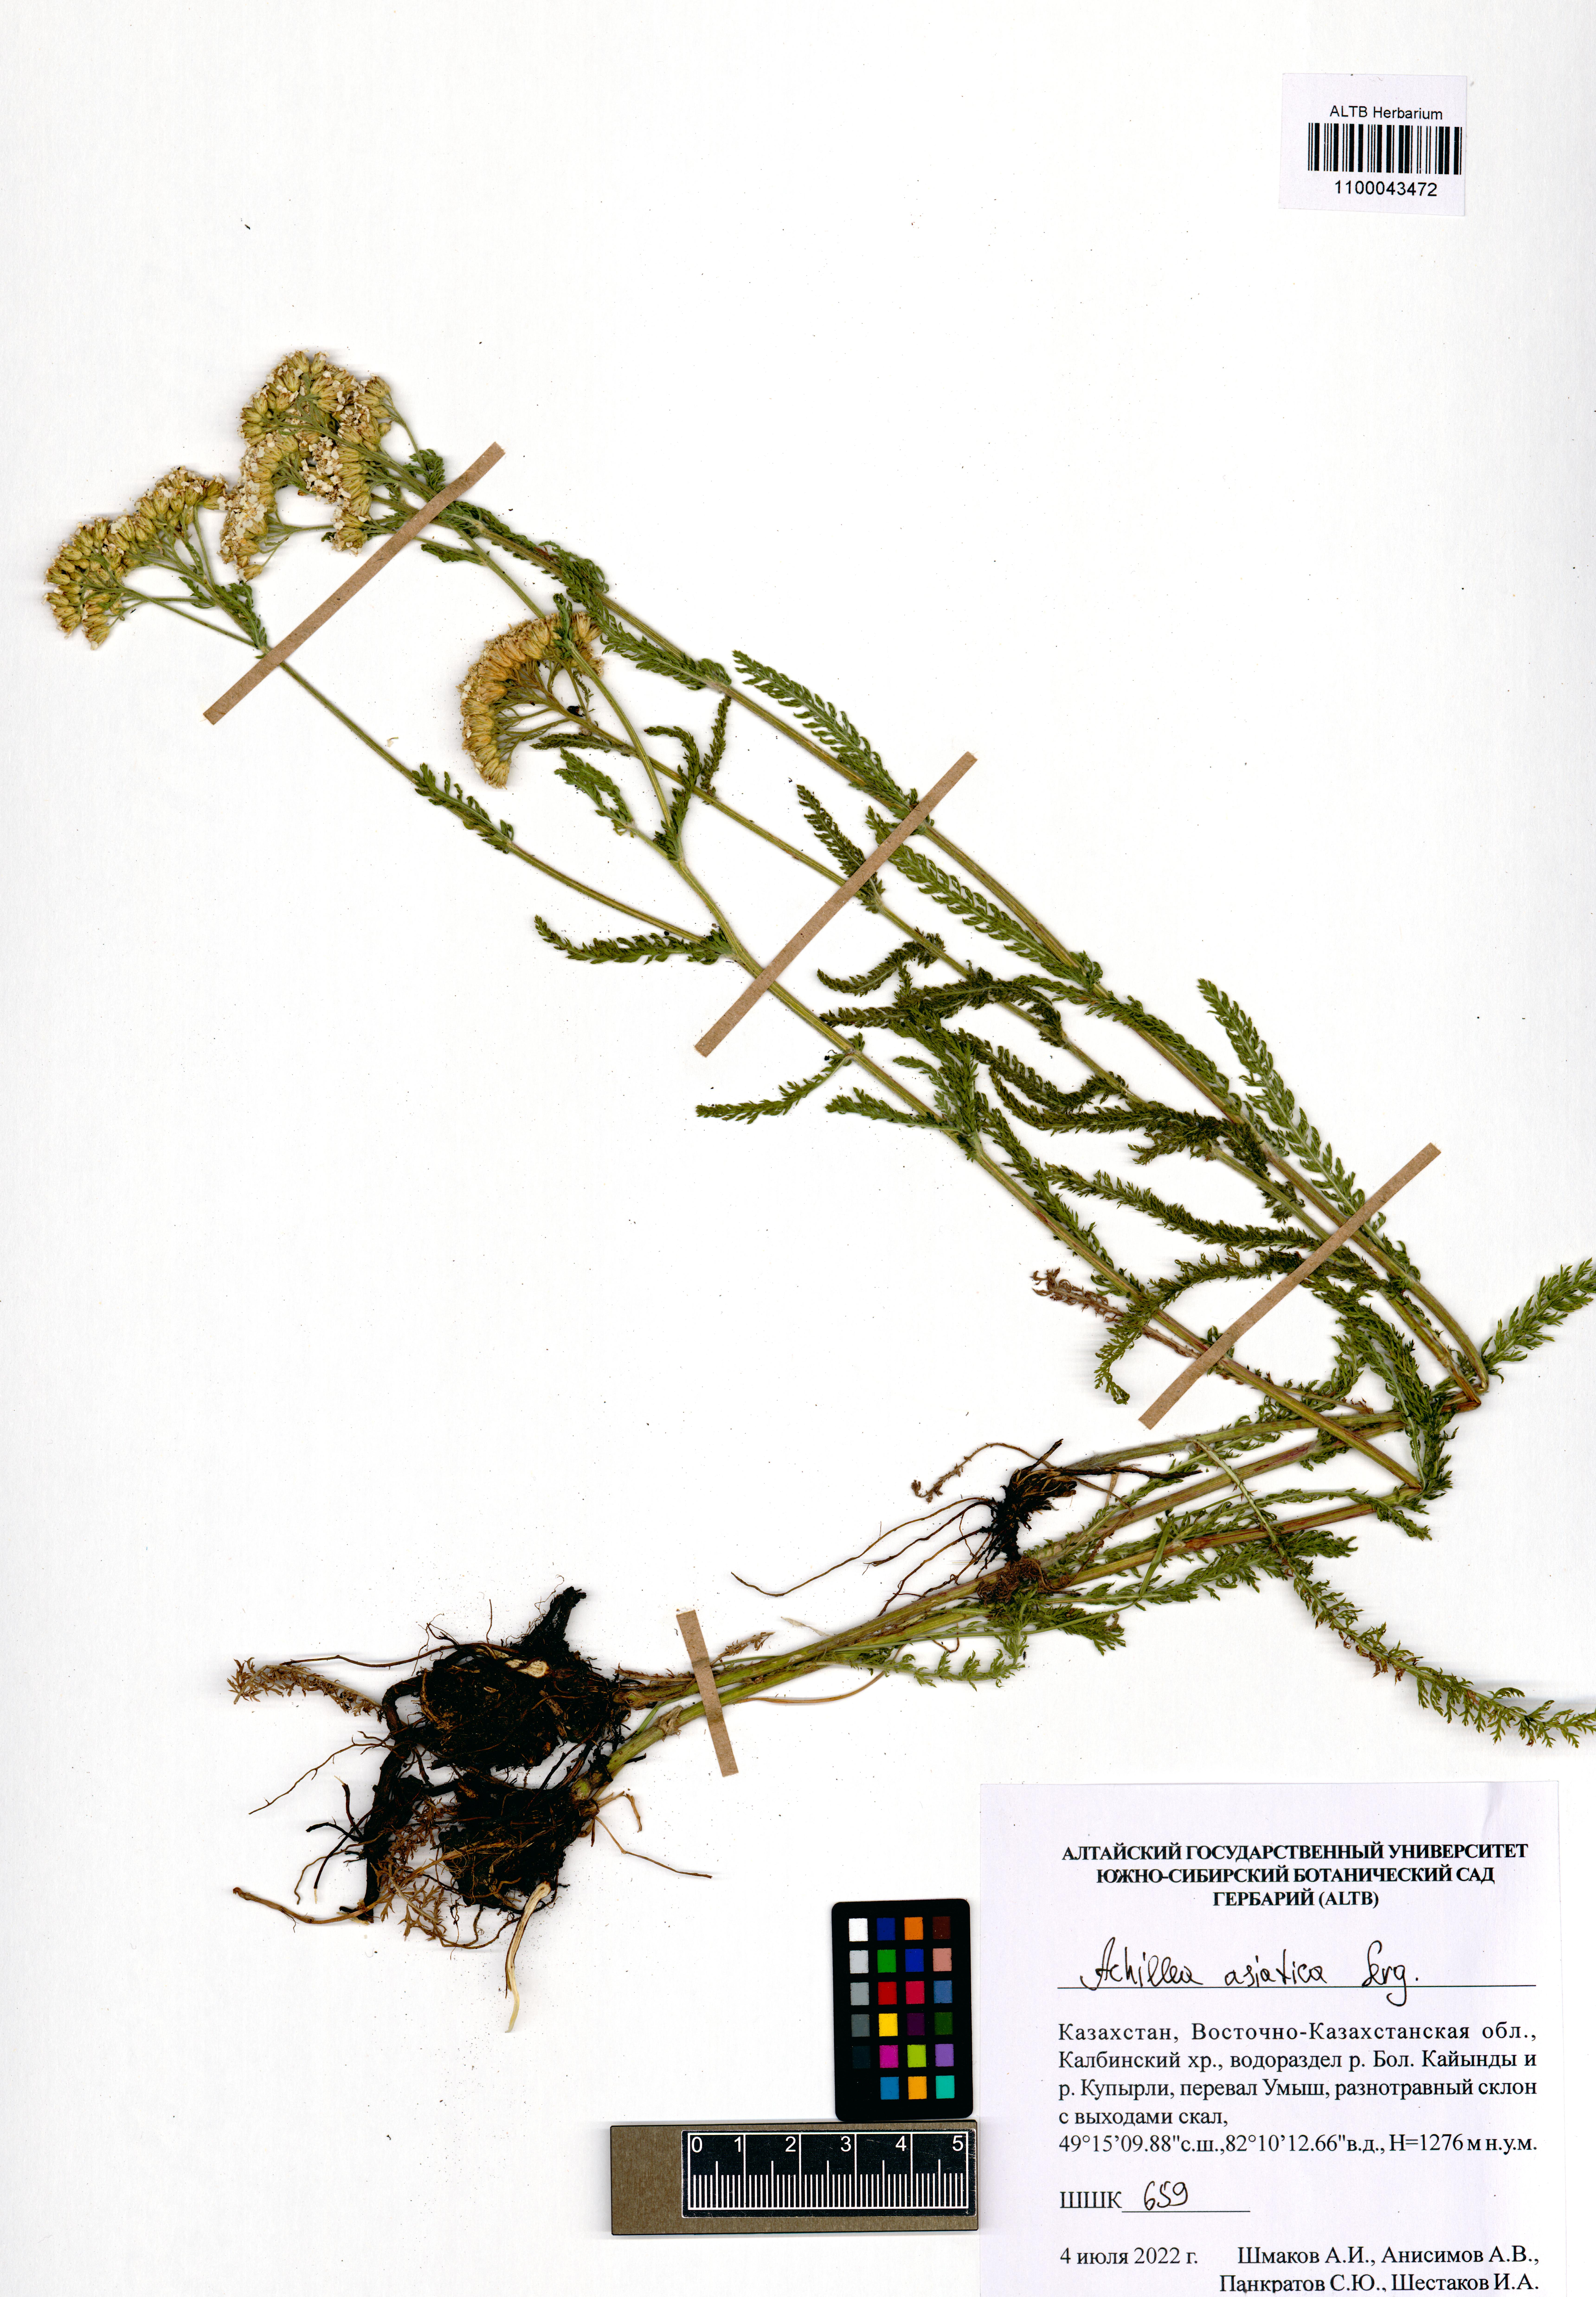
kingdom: Plantae
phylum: Tracheophyta
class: Magnoliopsida
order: Asterales
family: Asteraceae
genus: Achillea
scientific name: Achillea asiatica
